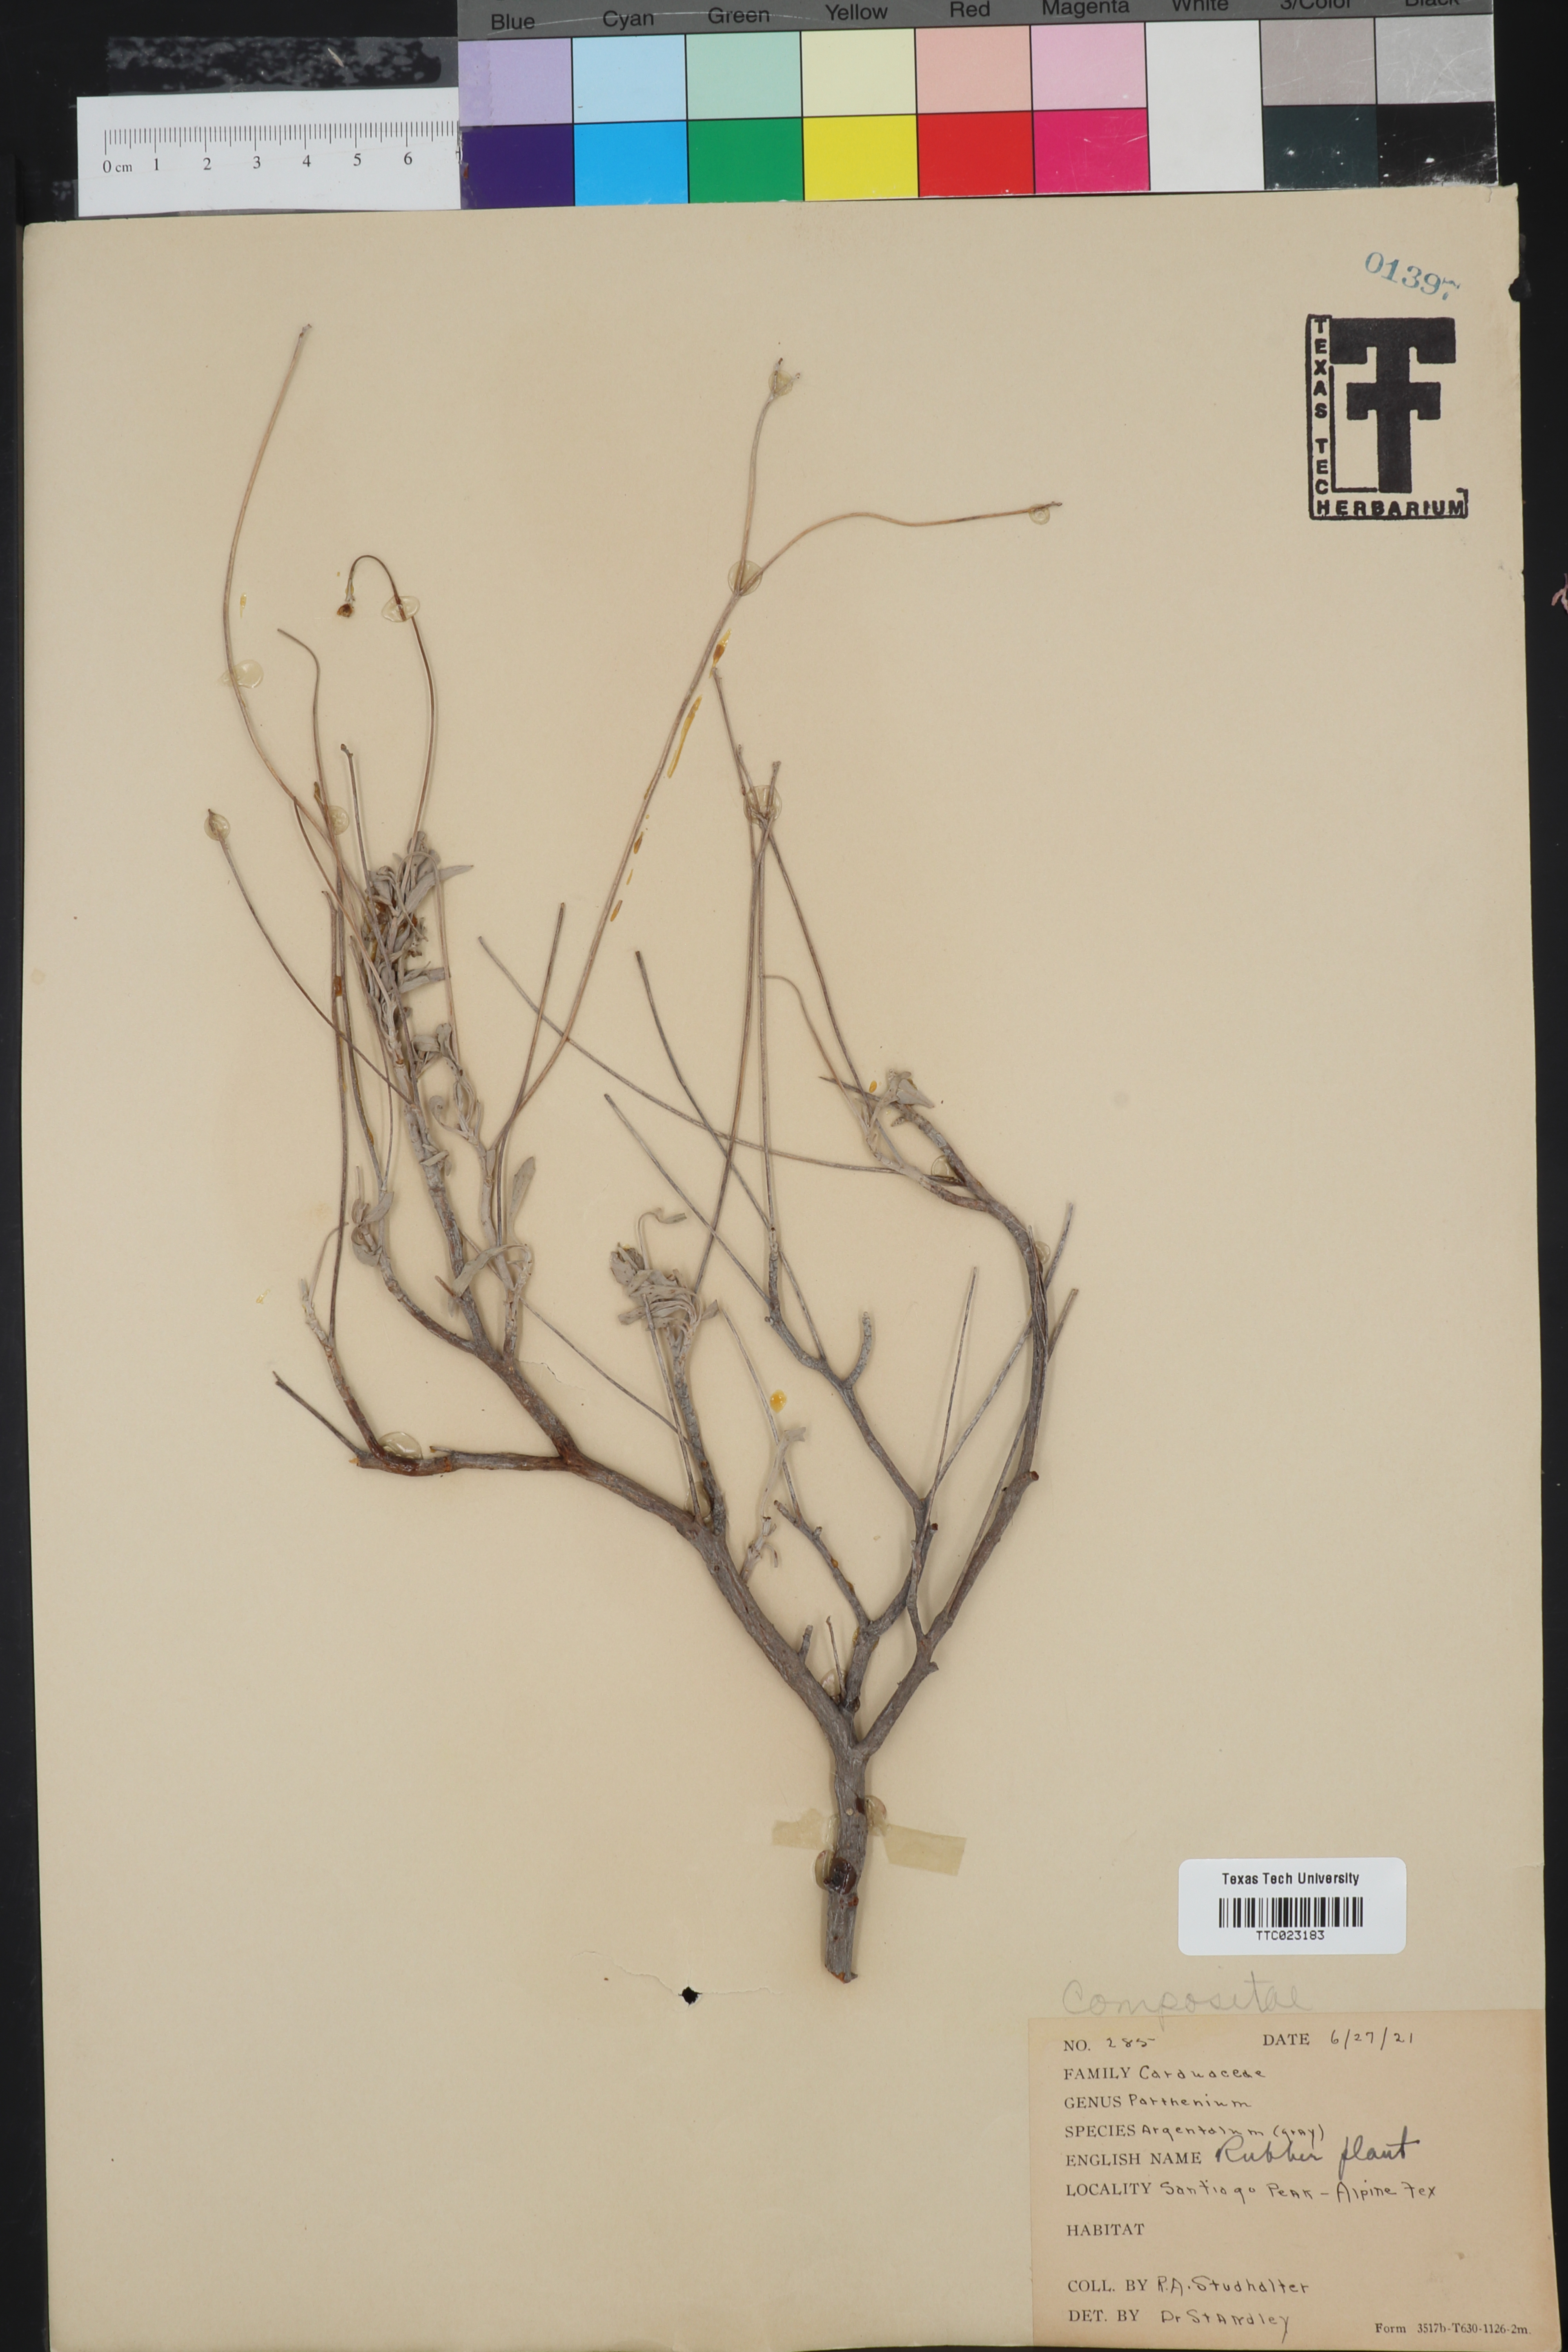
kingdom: Plantae
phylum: Tracheophyta
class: Magnoliopsida
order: Asterales
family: Asteraceae
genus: Parthenium
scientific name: Parthenium argentatum
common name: Guayule
